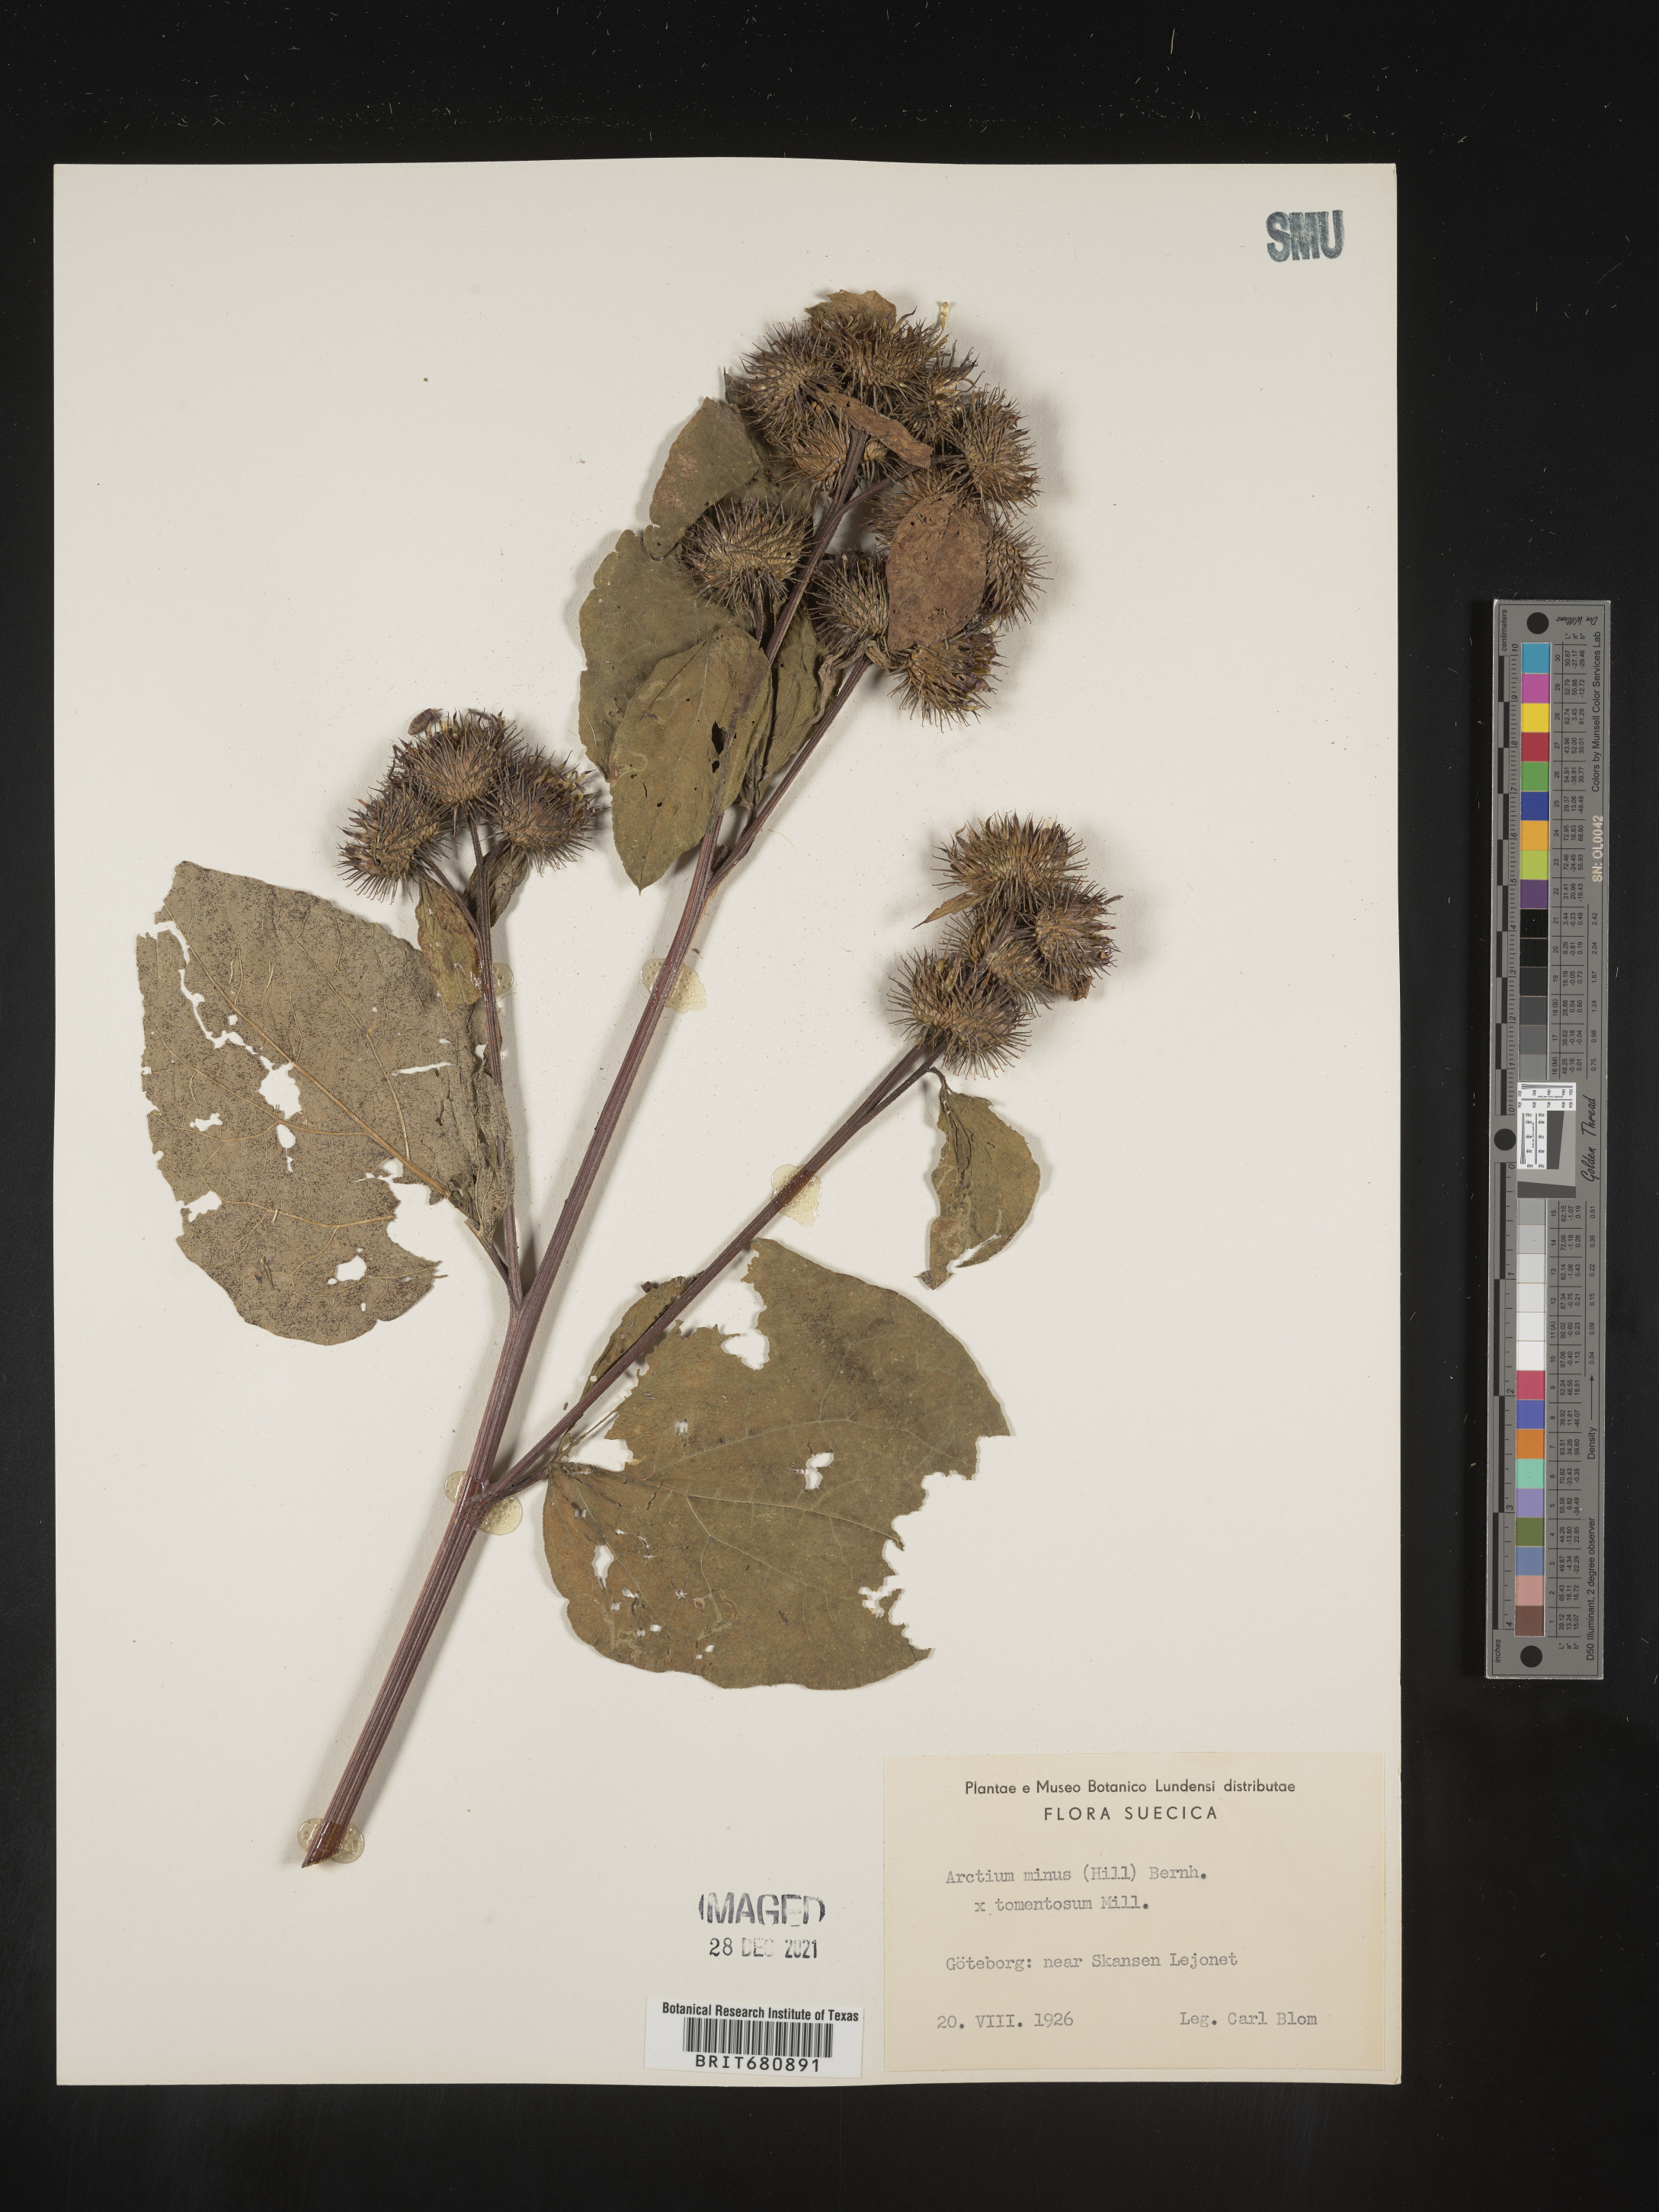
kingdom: Plantae
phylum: Tracheophyta
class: Magnoliopsida
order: Asterales
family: Asteraceae
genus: Arctium
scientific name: Arctium
